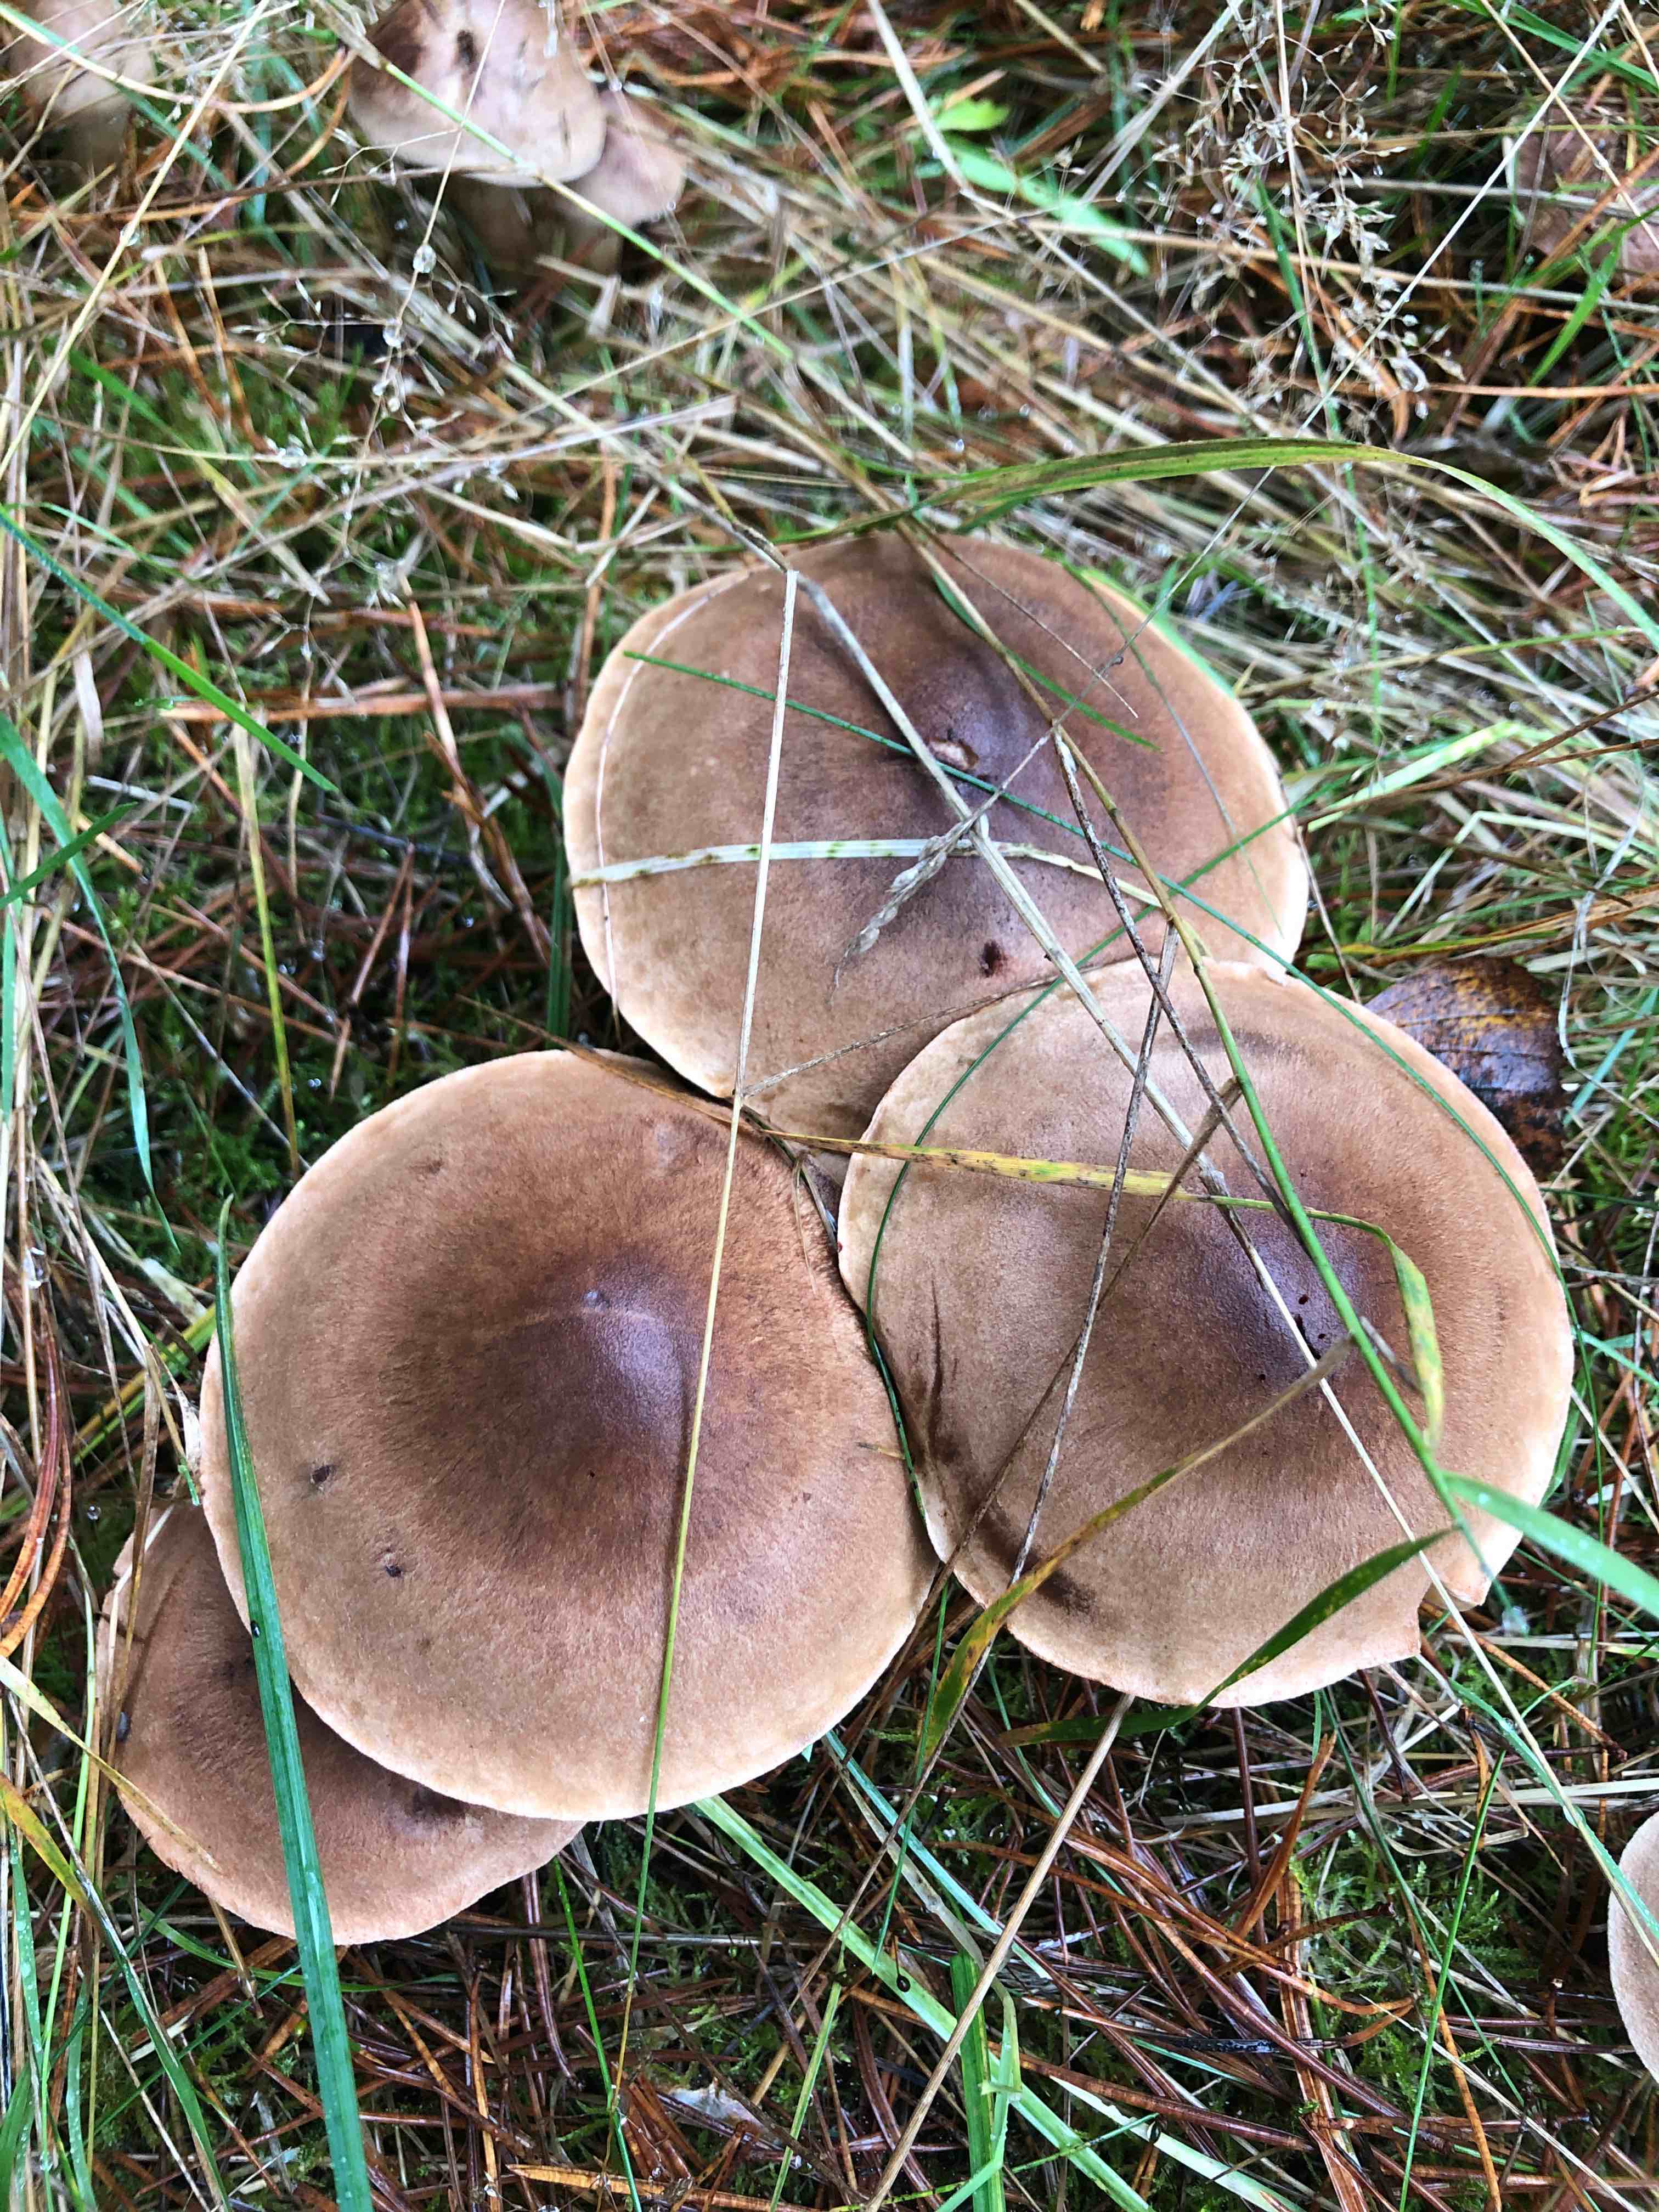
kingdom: Fungi
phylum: Basidiomycota
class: Agaricomycetes
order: Agaricales
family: Tricholomataceae
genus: Tricholoma
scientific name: Tricholoma imbricatum
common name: skællet ridderhat
